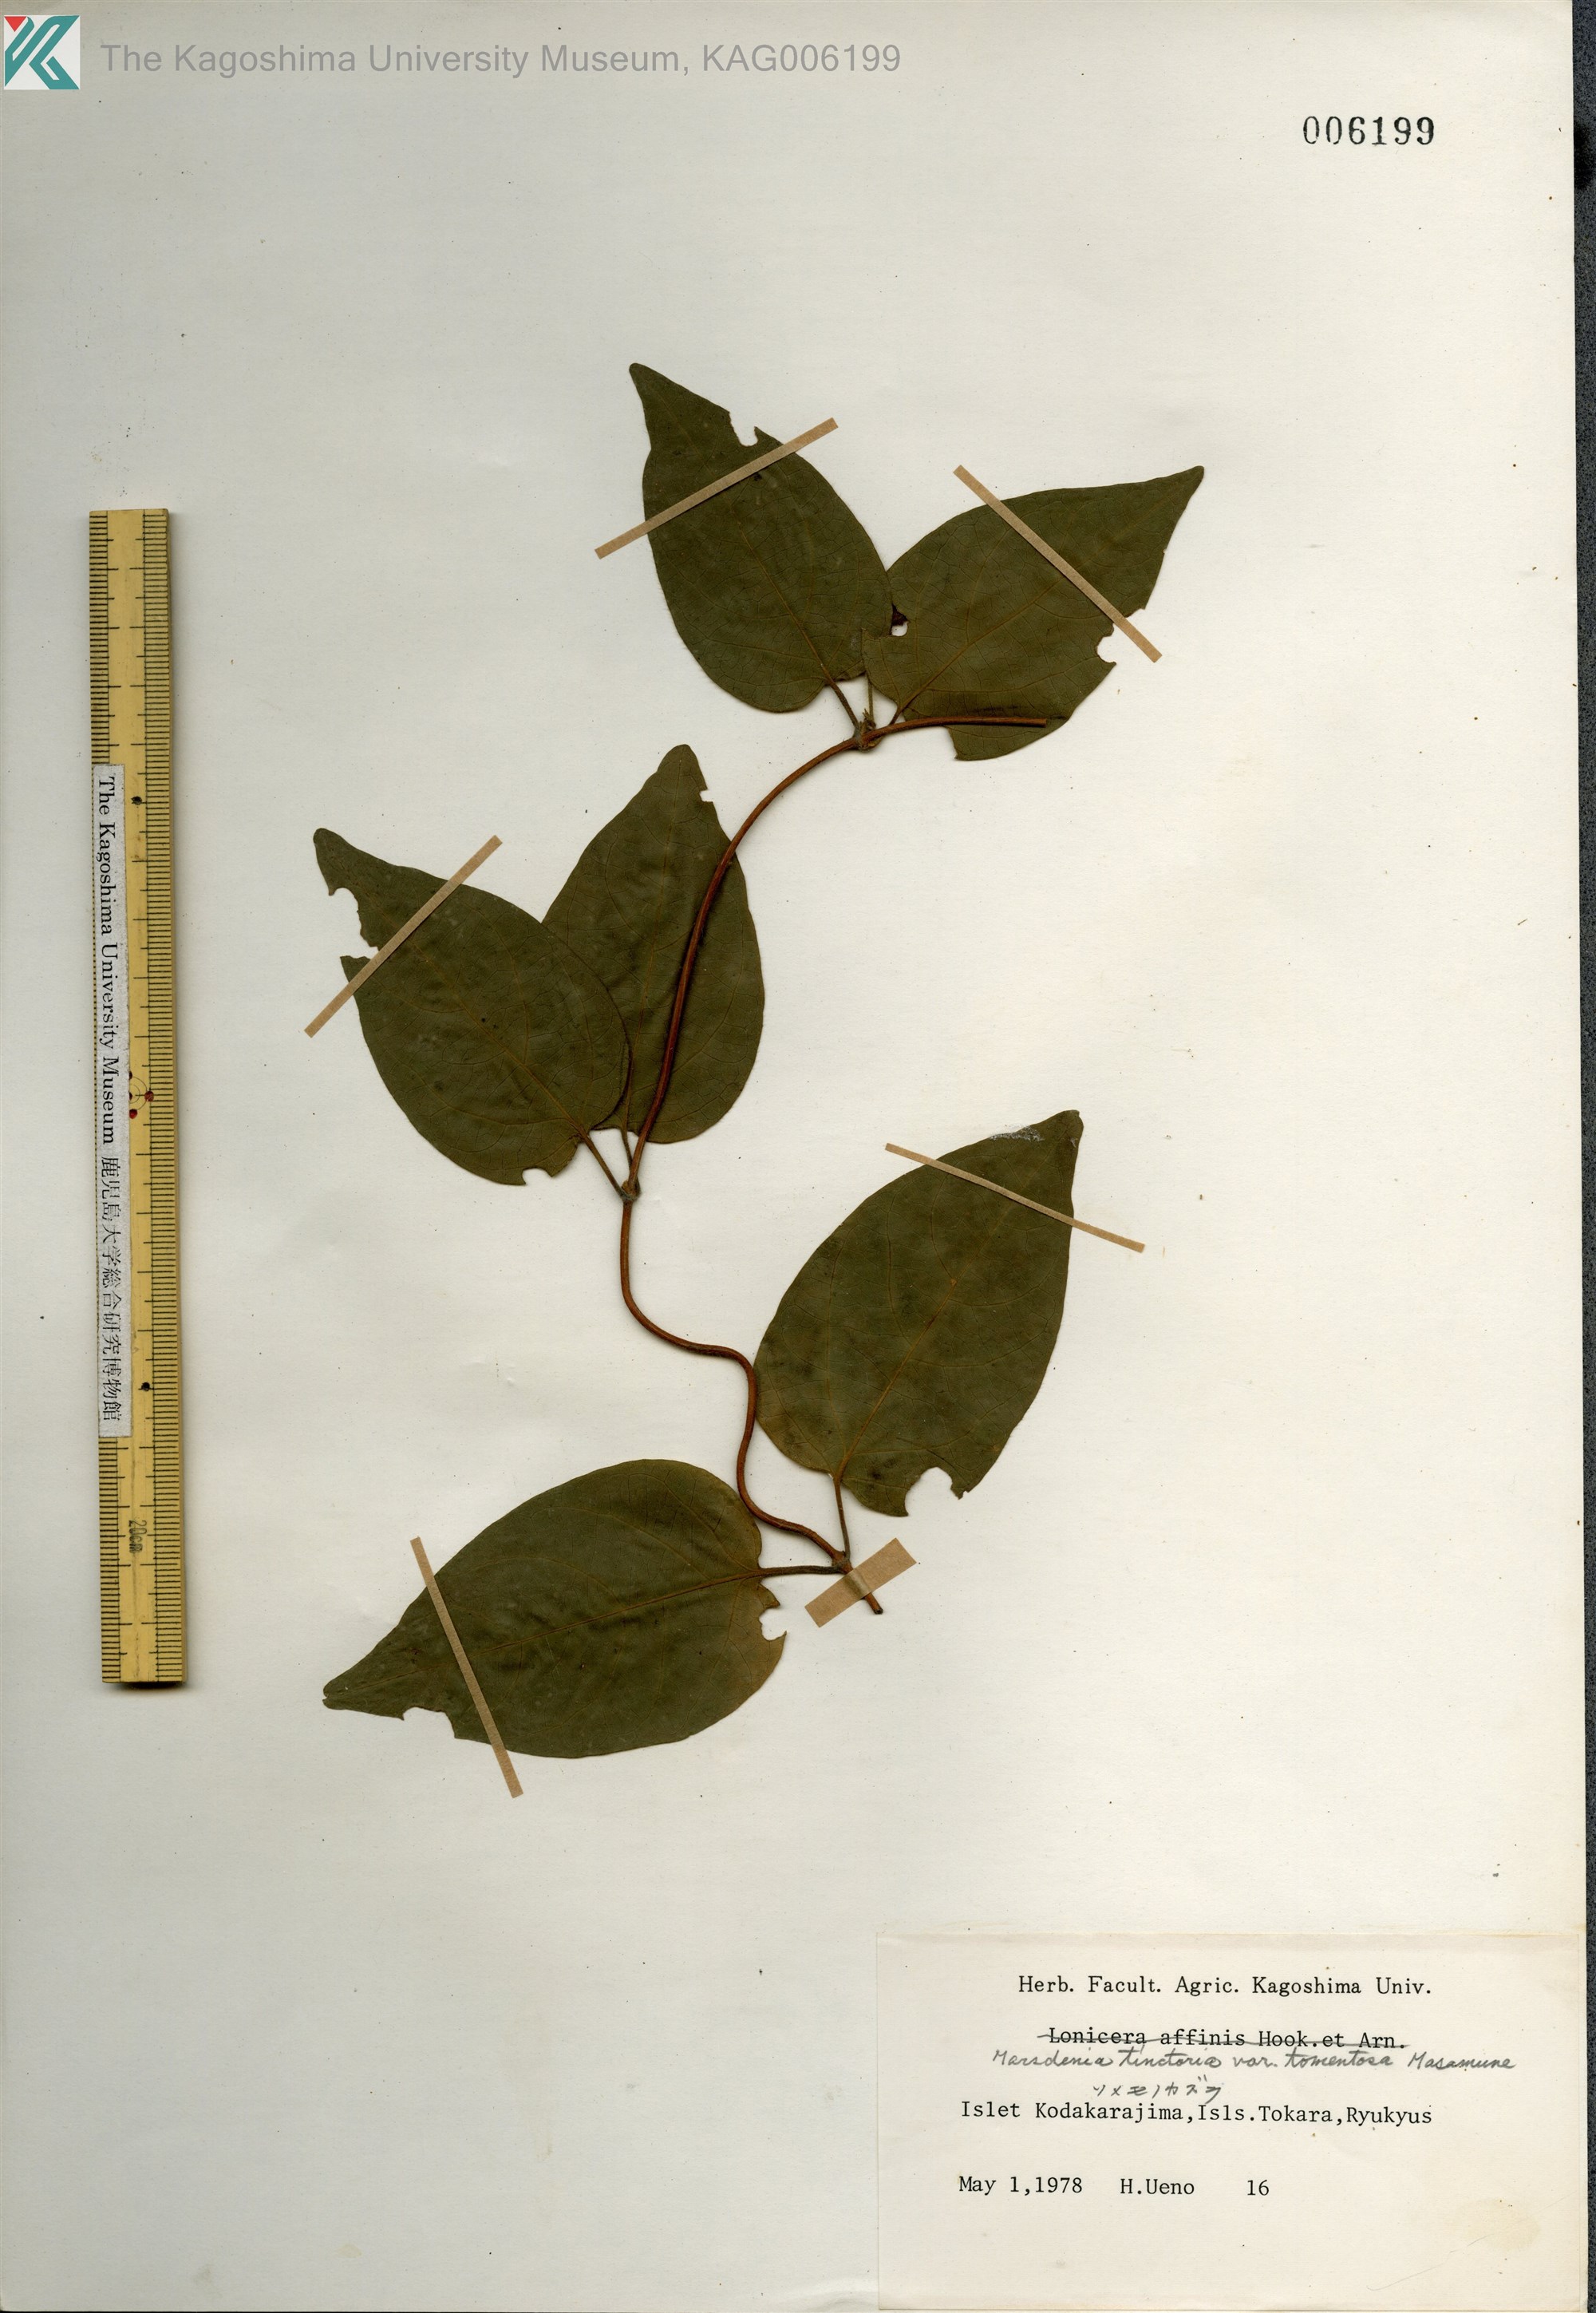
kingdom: Plantae
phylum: Tracheophyta
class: Magnoliopsida
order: Gentianales
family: Apocynaceae
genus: Marsdenia
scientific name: Marsdenia tinctoria
